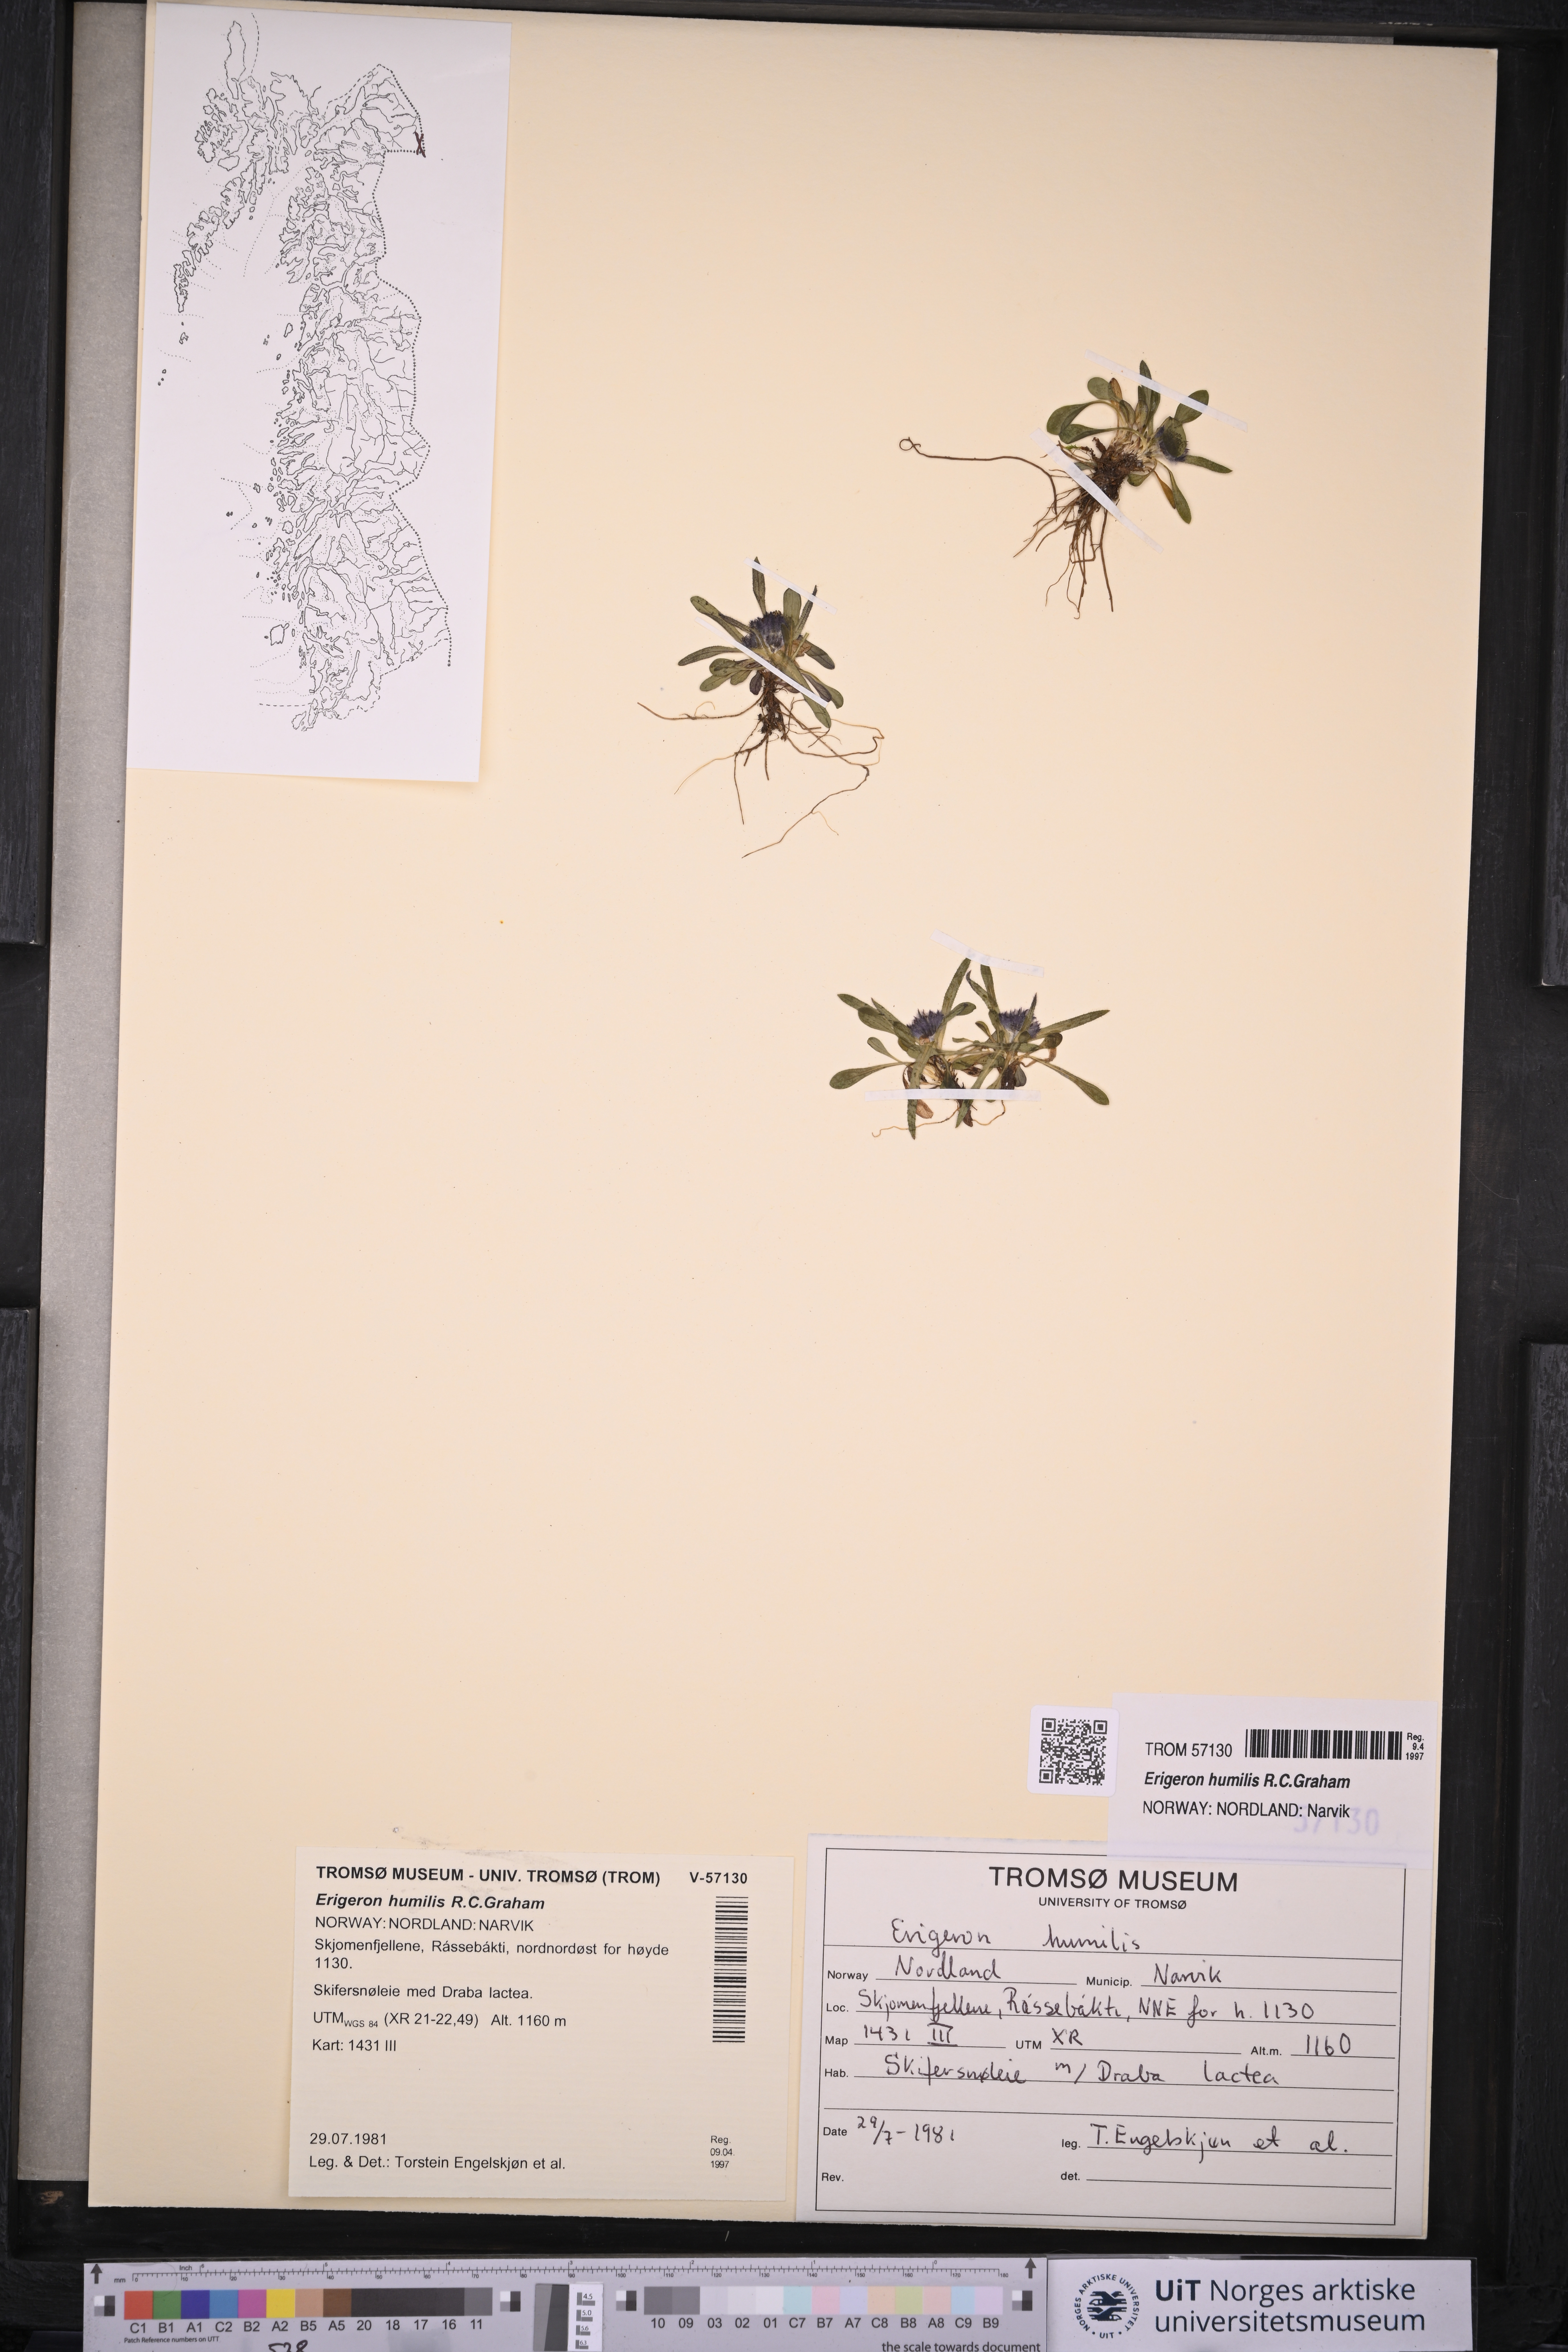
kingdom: Plantae
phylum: Tracheophyta
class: Magnoliopsida
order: Asterales
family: Asteraceae
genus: Erigeron
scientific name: Erigeron humilis
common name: Arctic-alpine fleabane
